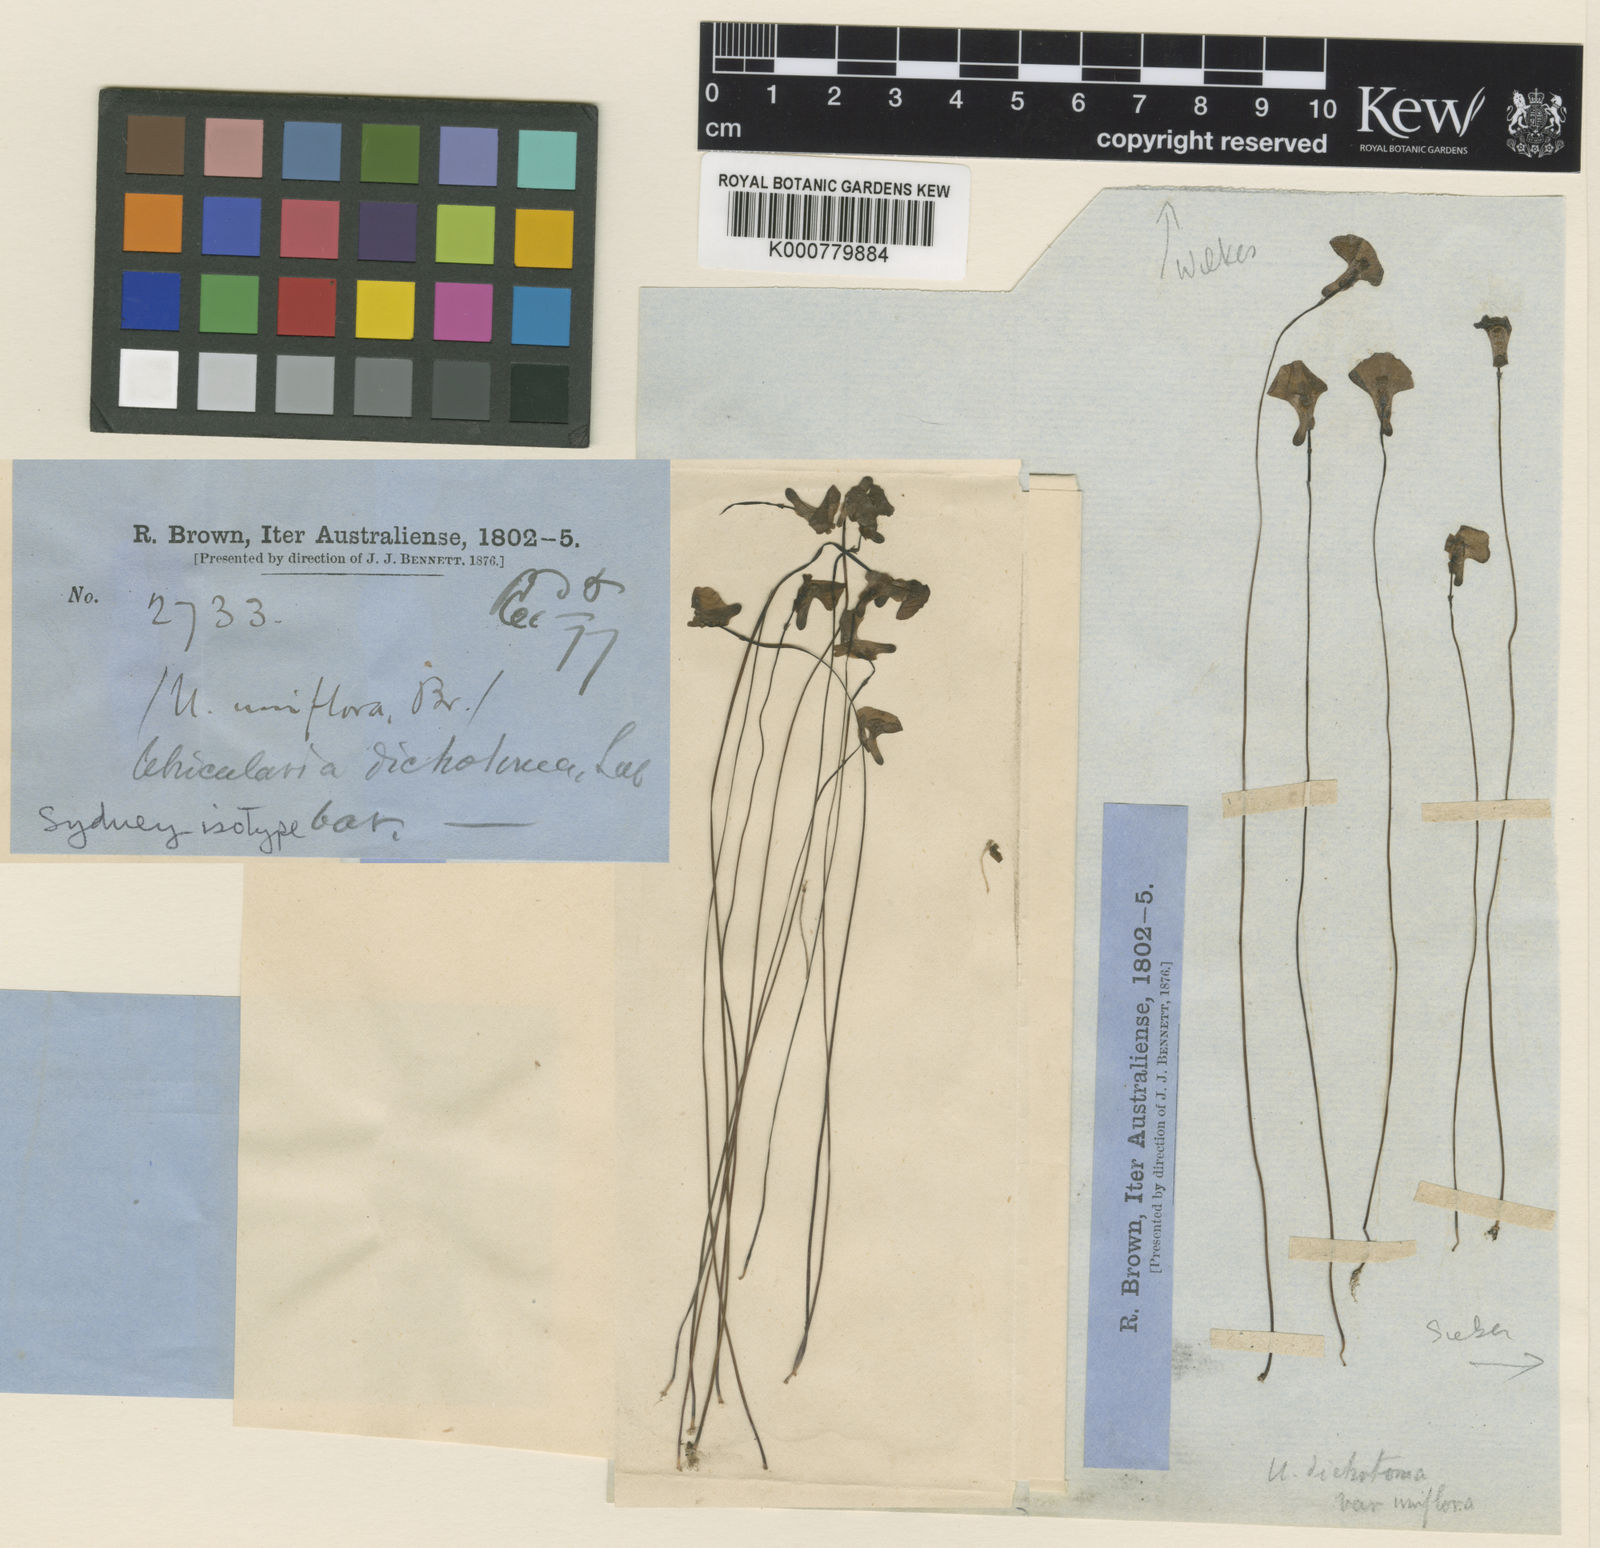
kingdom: Plantae
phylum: Tracheophyta
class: Magnoliopsida
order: Lamiales
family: Lentibulariaceae
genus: Utricularia
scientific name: Utricularia dichotoma
